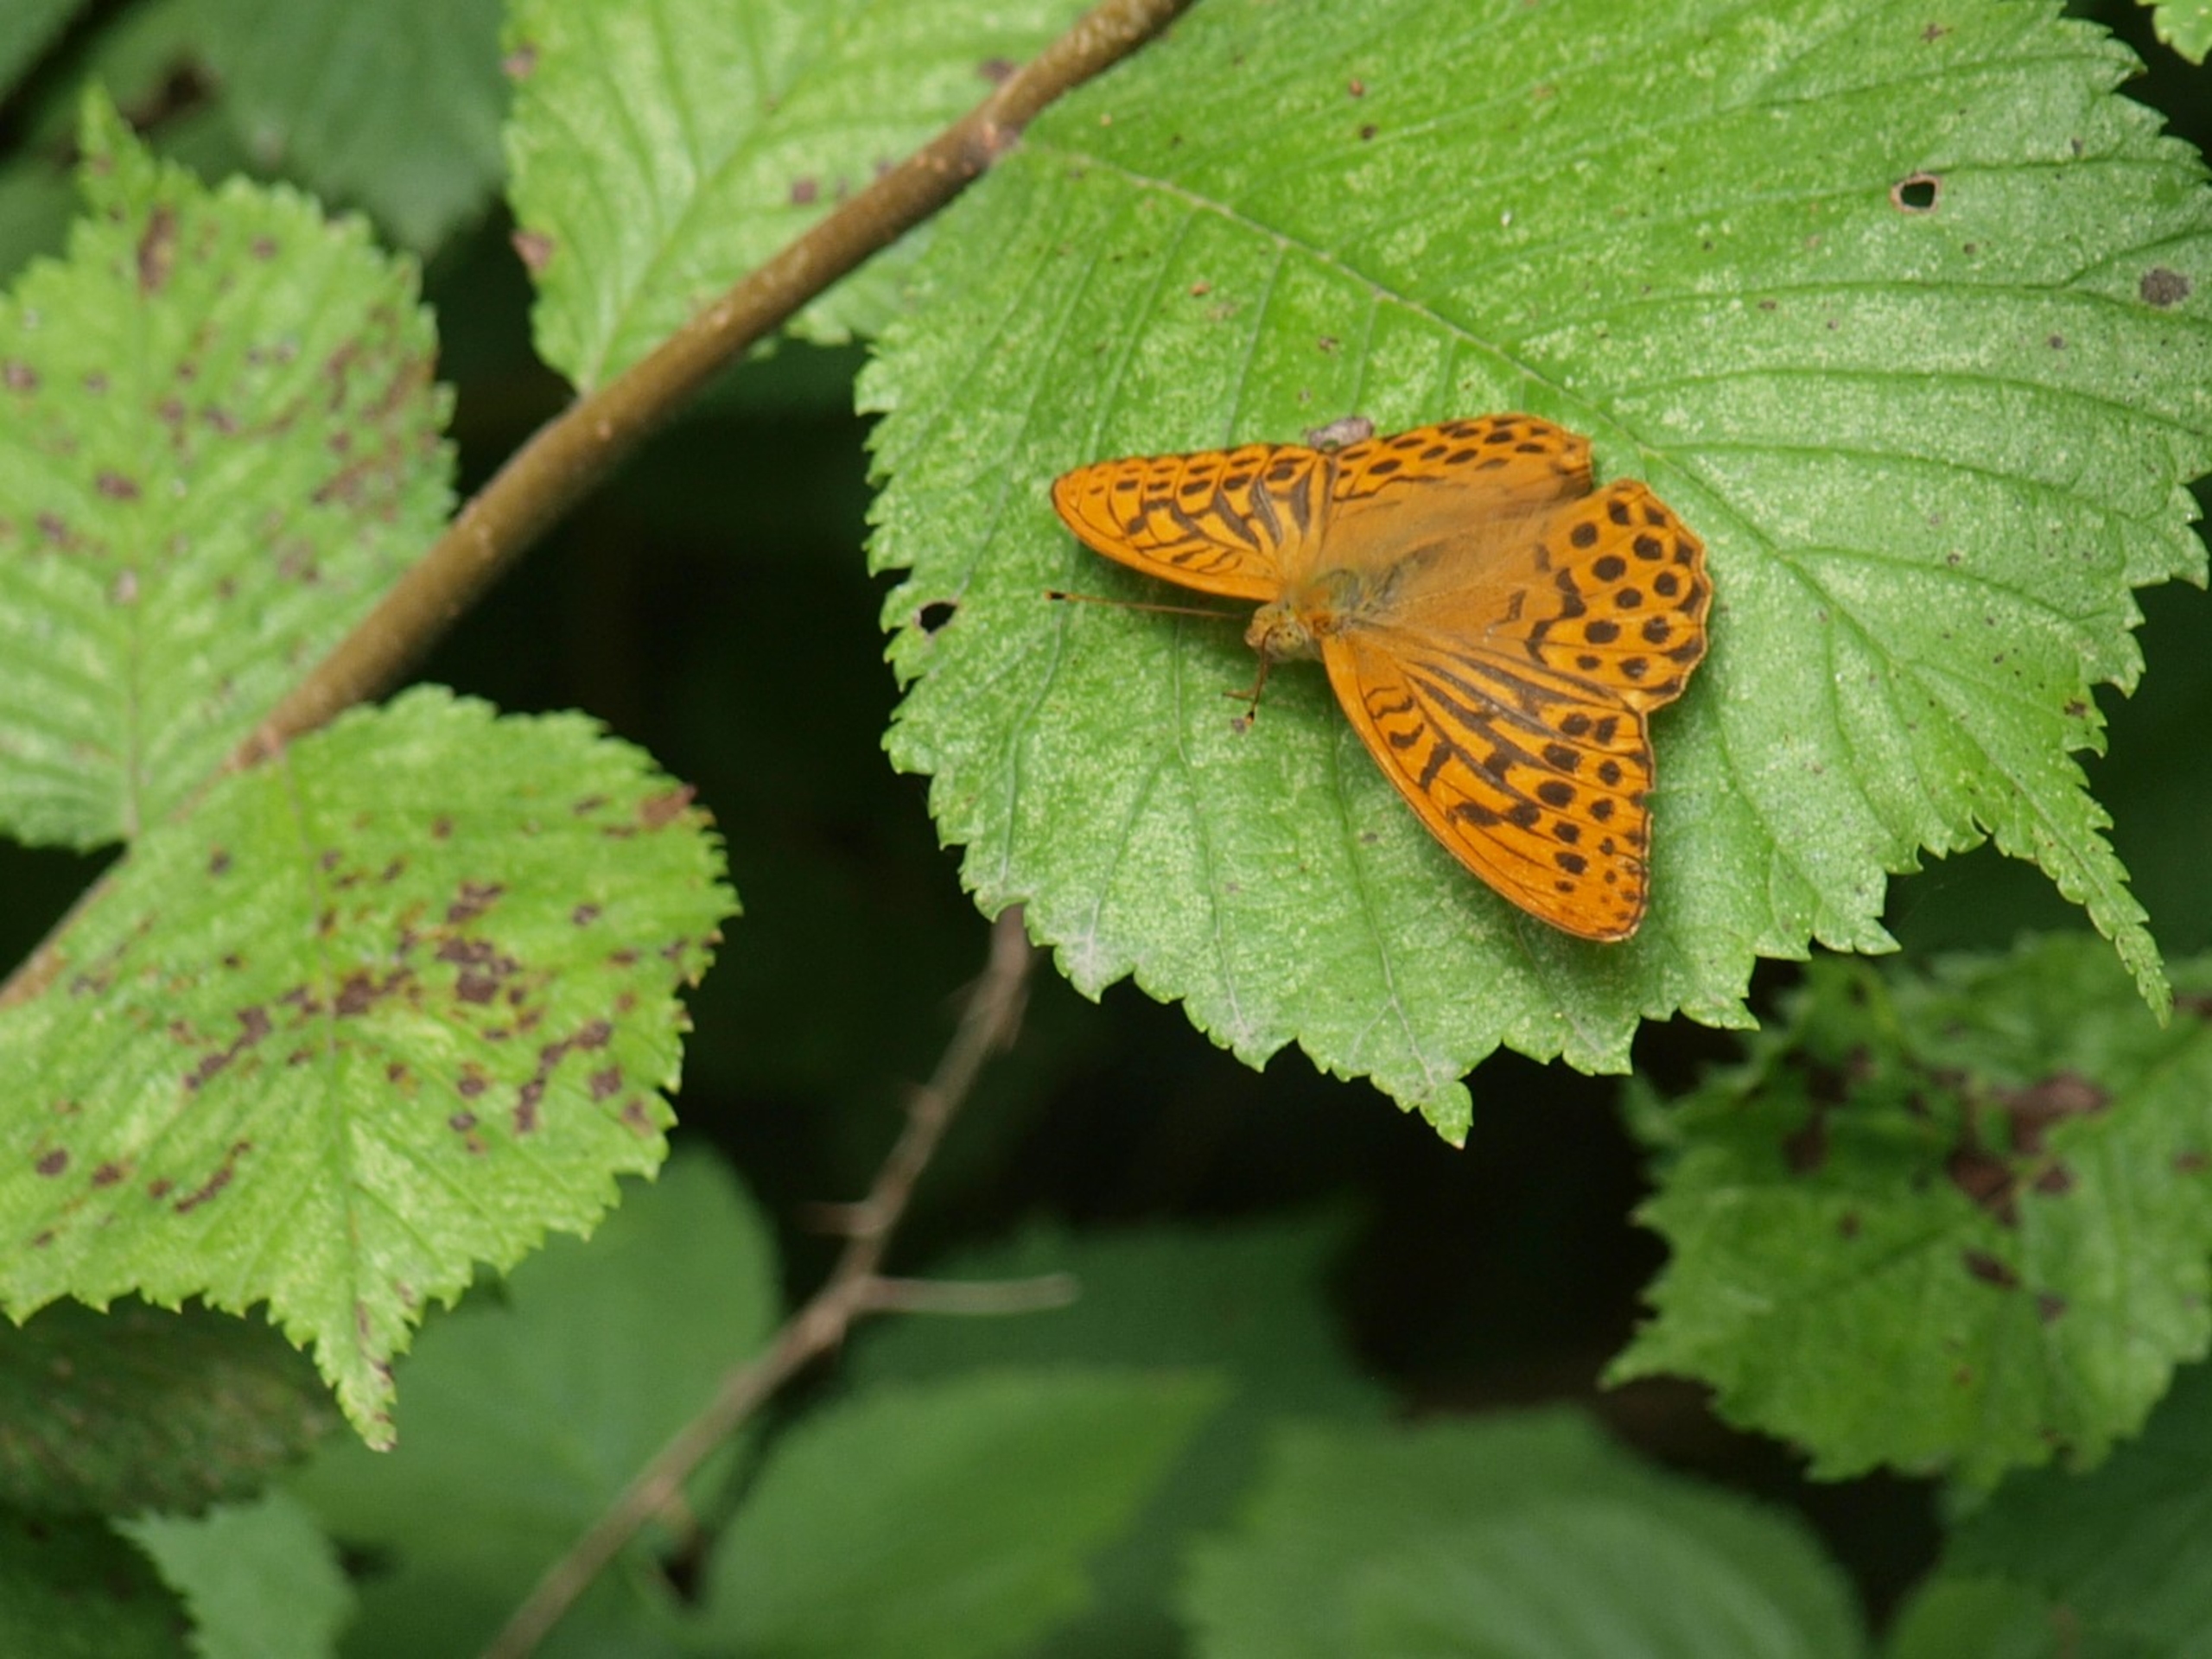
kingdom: Animalia
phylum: Arthropoda
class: Insecta
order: Lepidoptera
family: Nymphalidae
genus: Argynnis
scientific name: Argynnis paphia
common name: Kejserkåbe
